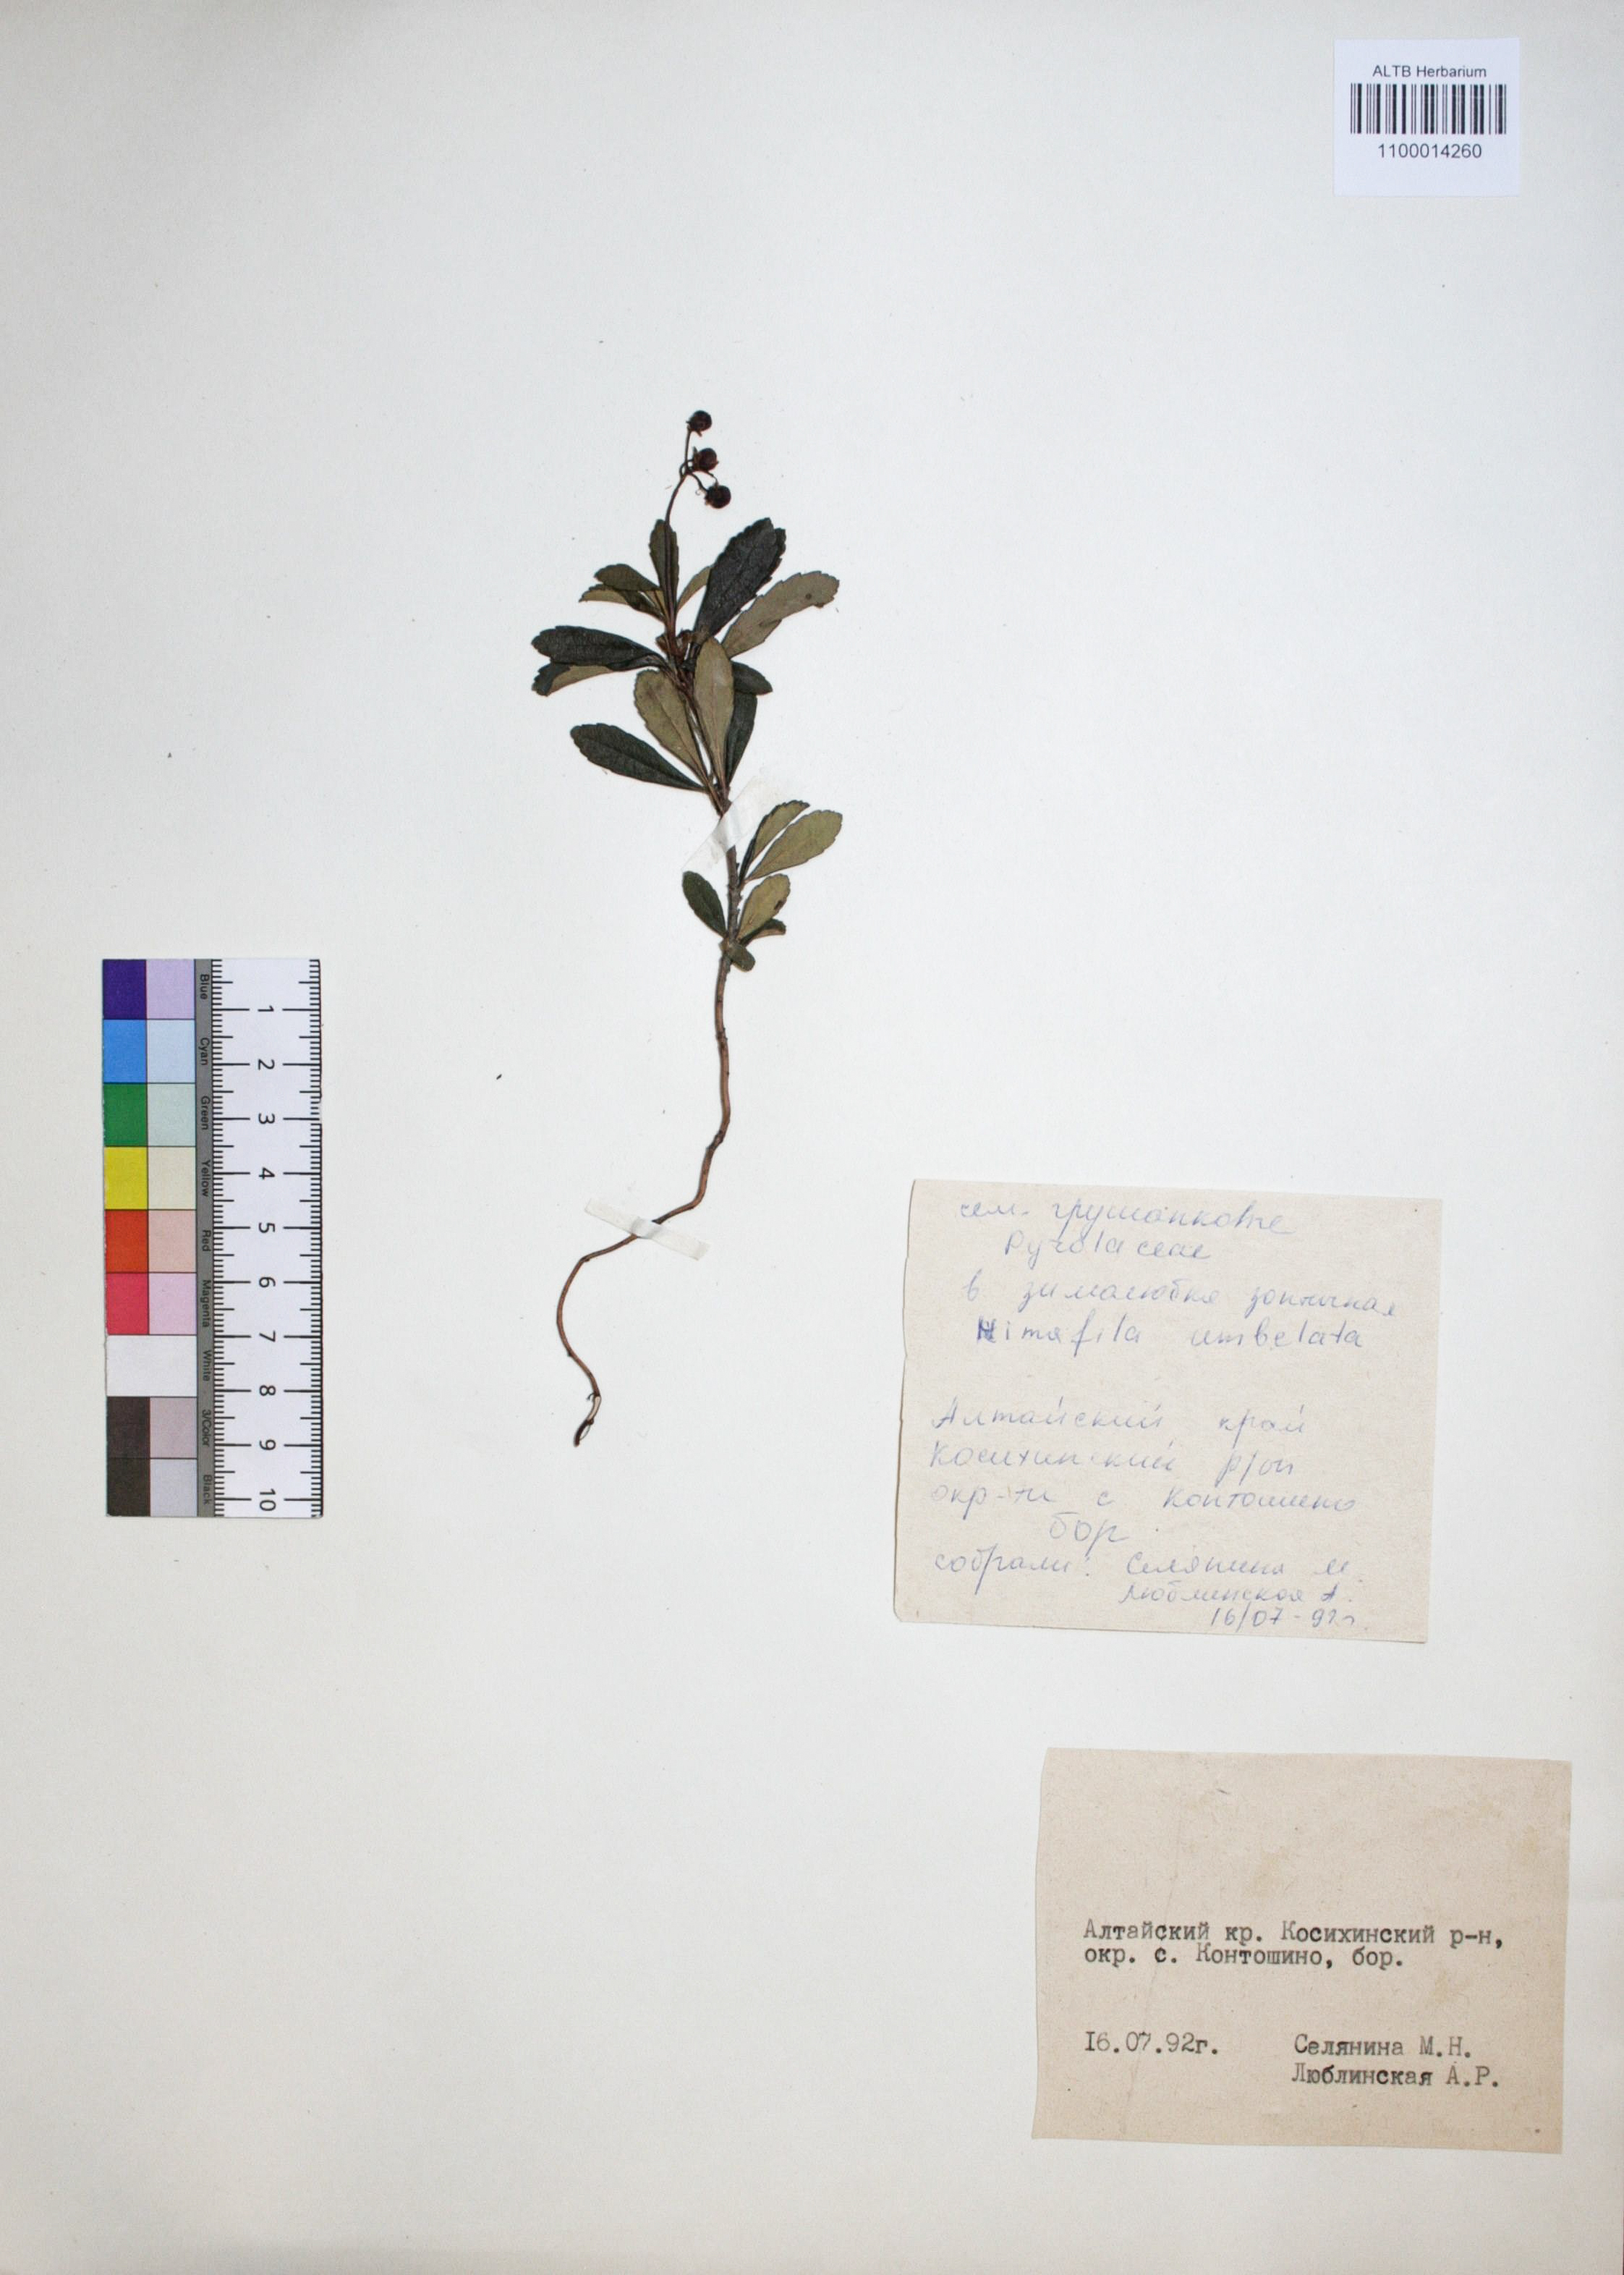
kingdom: Plantae
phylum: Tracheophyta
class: Magnoliopsida
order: Ericales
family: Ericaceae
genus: Chimaphila
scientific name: Chimaphila umbellata
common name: Pipsissewa
